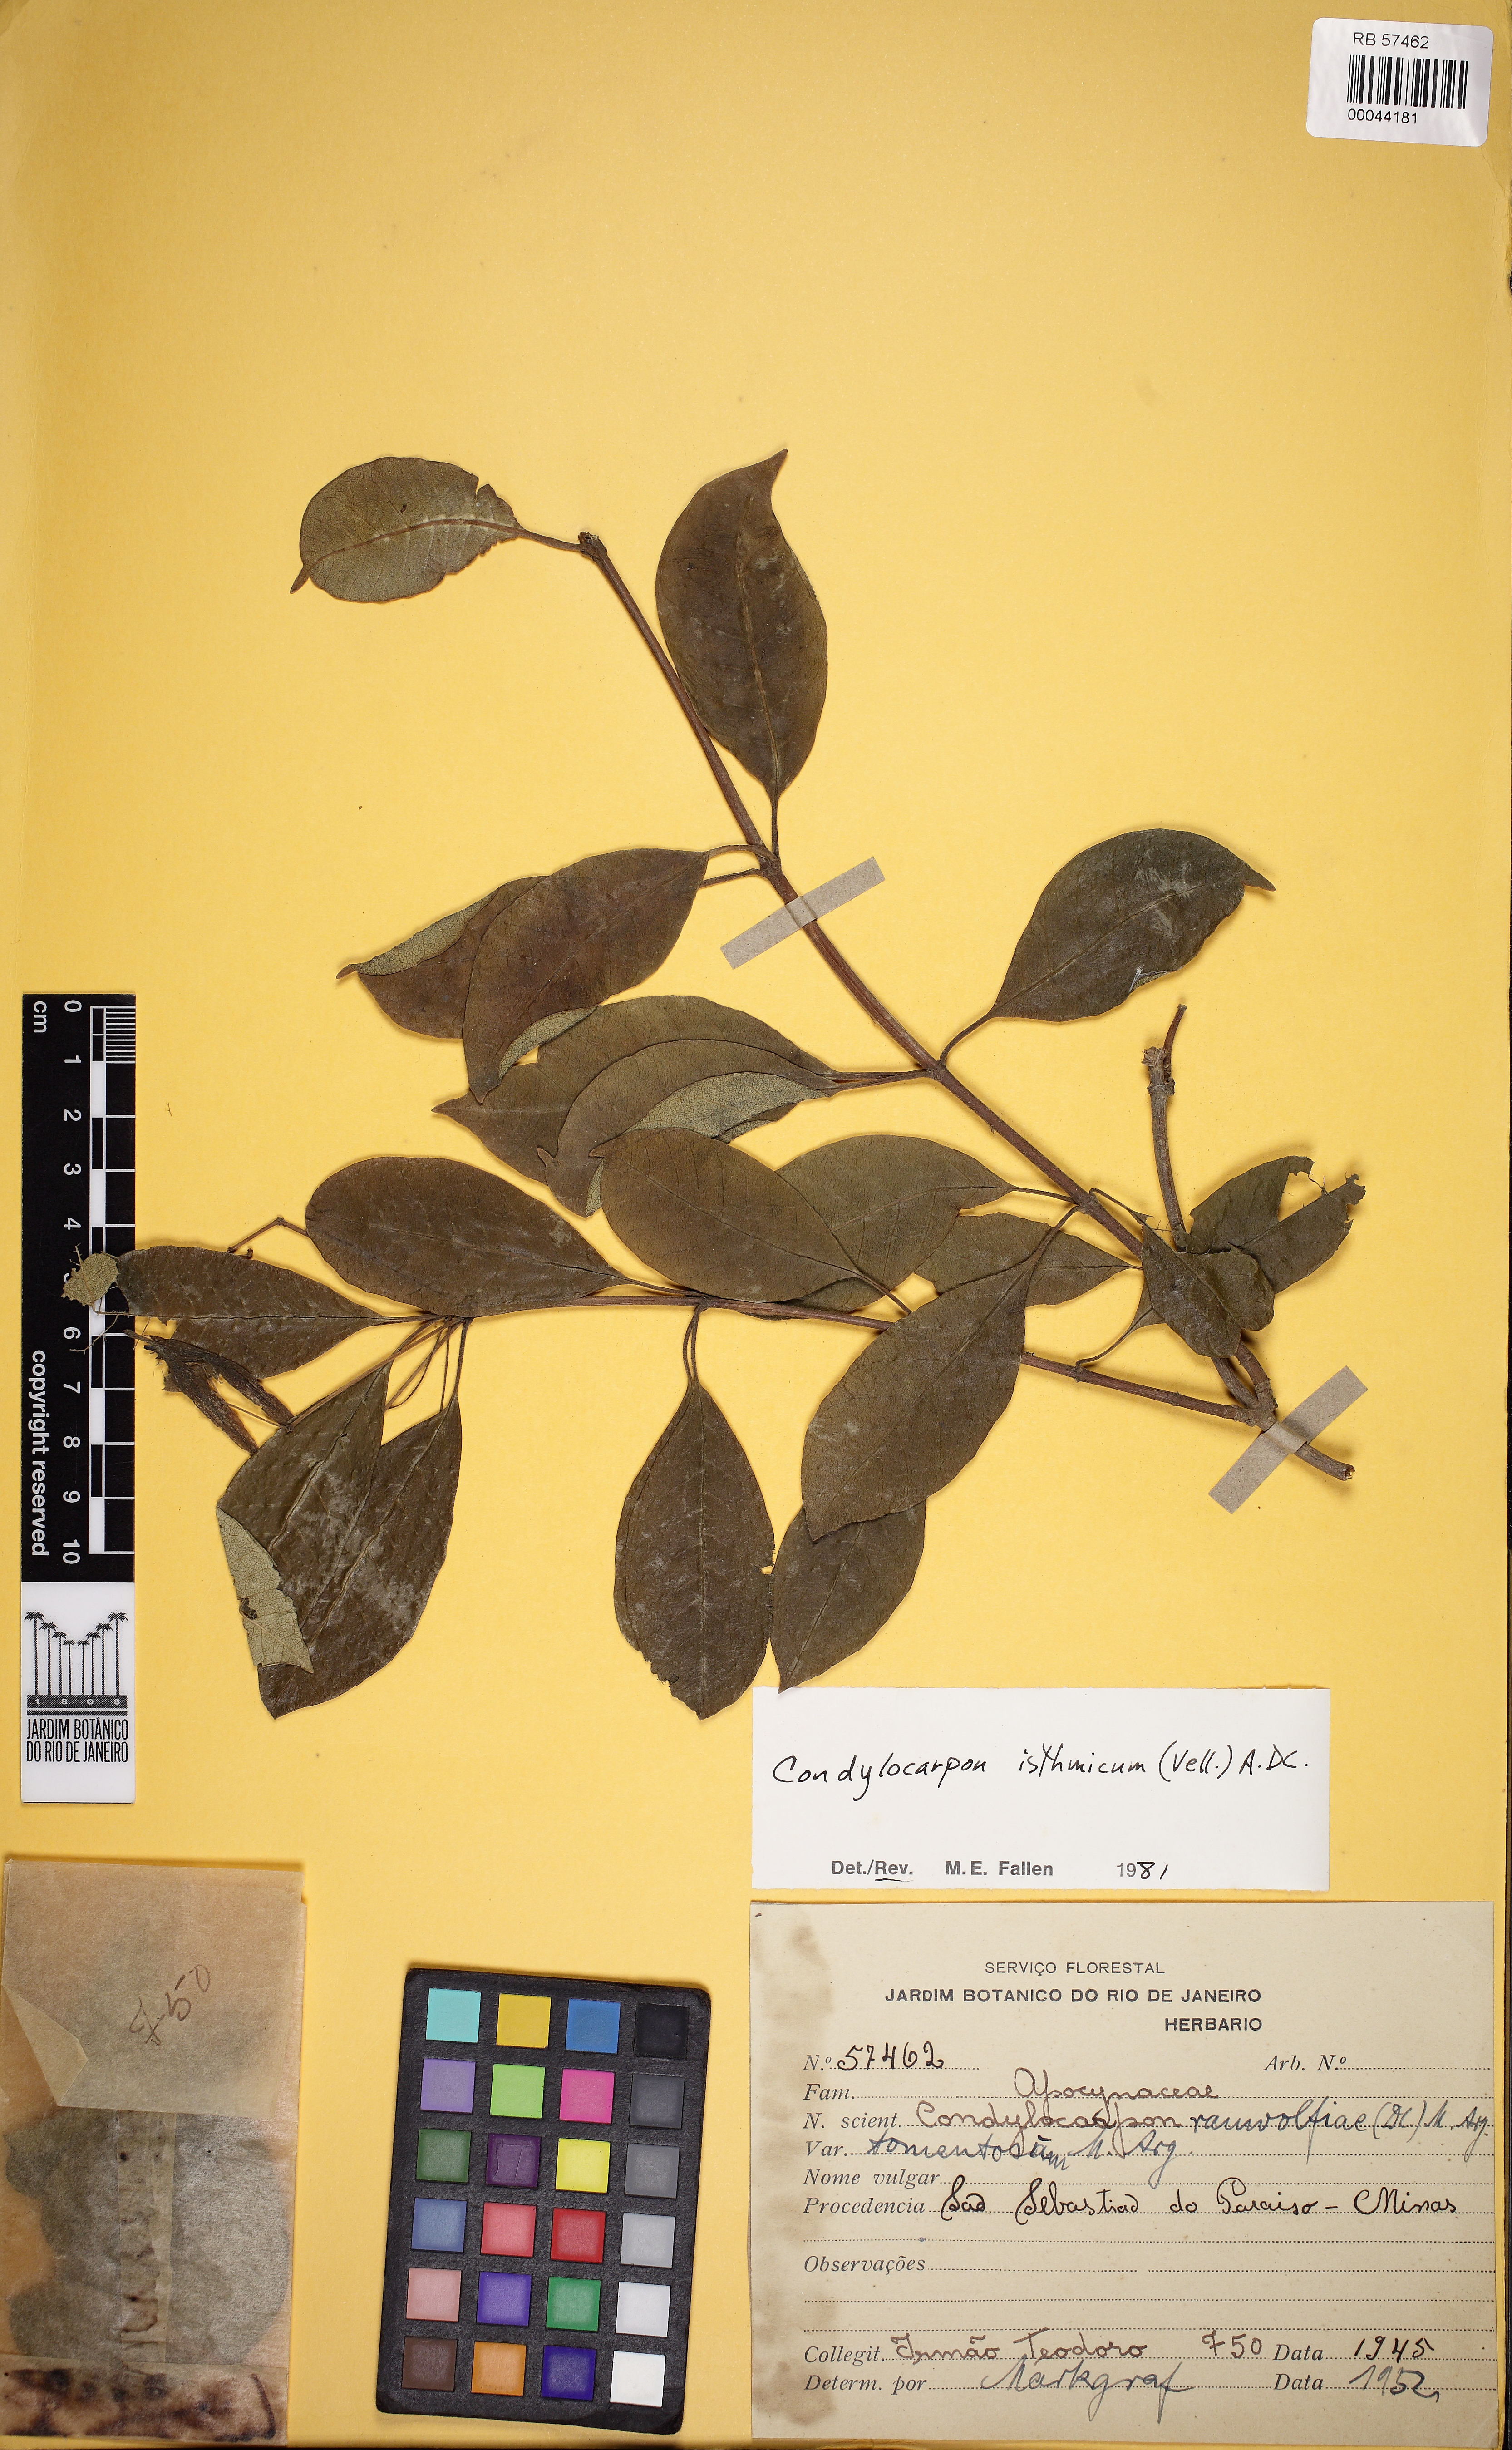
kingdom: Plantae
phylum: Tracheophyta
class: Magnoliopsida
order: Gentianales
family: Apocynaceae
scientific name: Apocynaceae
